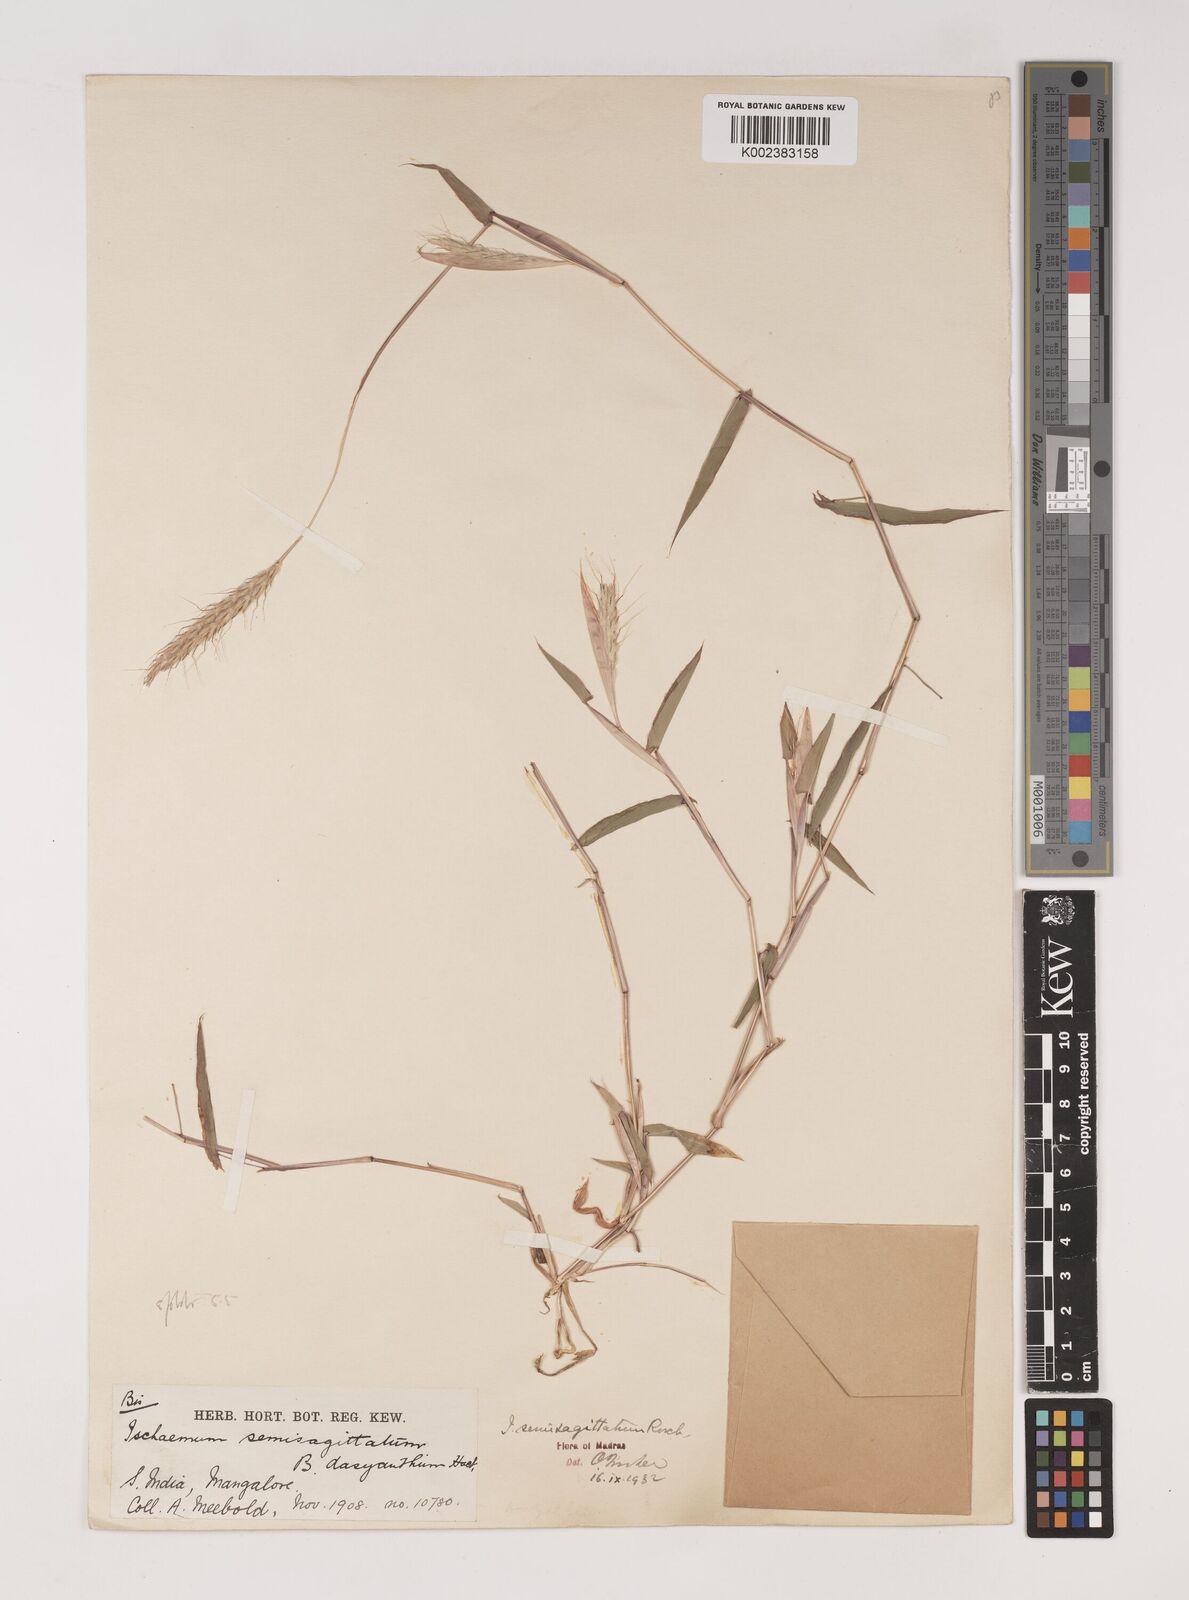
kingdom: Plantae
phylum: Tracheophyta
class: Liliopsida
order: Poales
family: Poaceae
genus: Ischaemum
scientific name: Ischaemum semisagittatum
